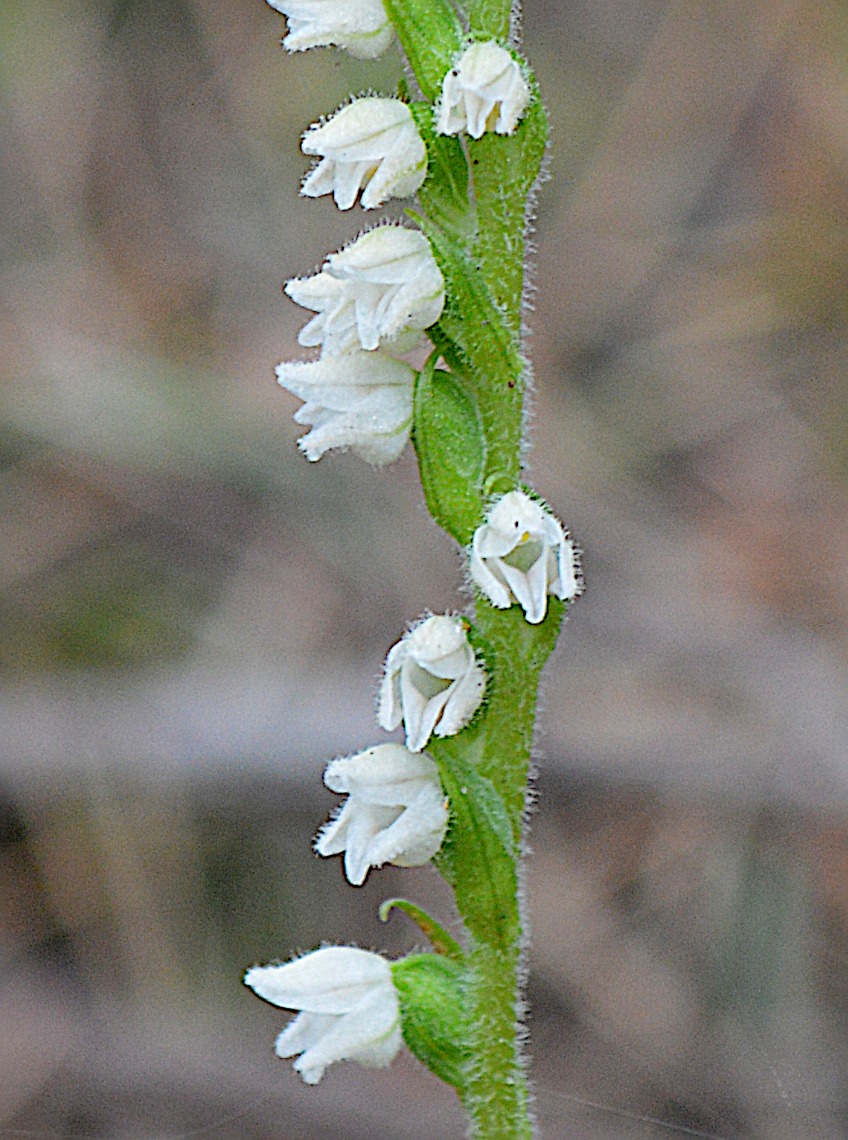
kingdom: Plantae
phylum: Tracheophyta
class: Liliopsida
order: Asparagales
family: Orchidaceae
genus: Goodyera
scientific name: Goodyera repens
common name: Knærod
